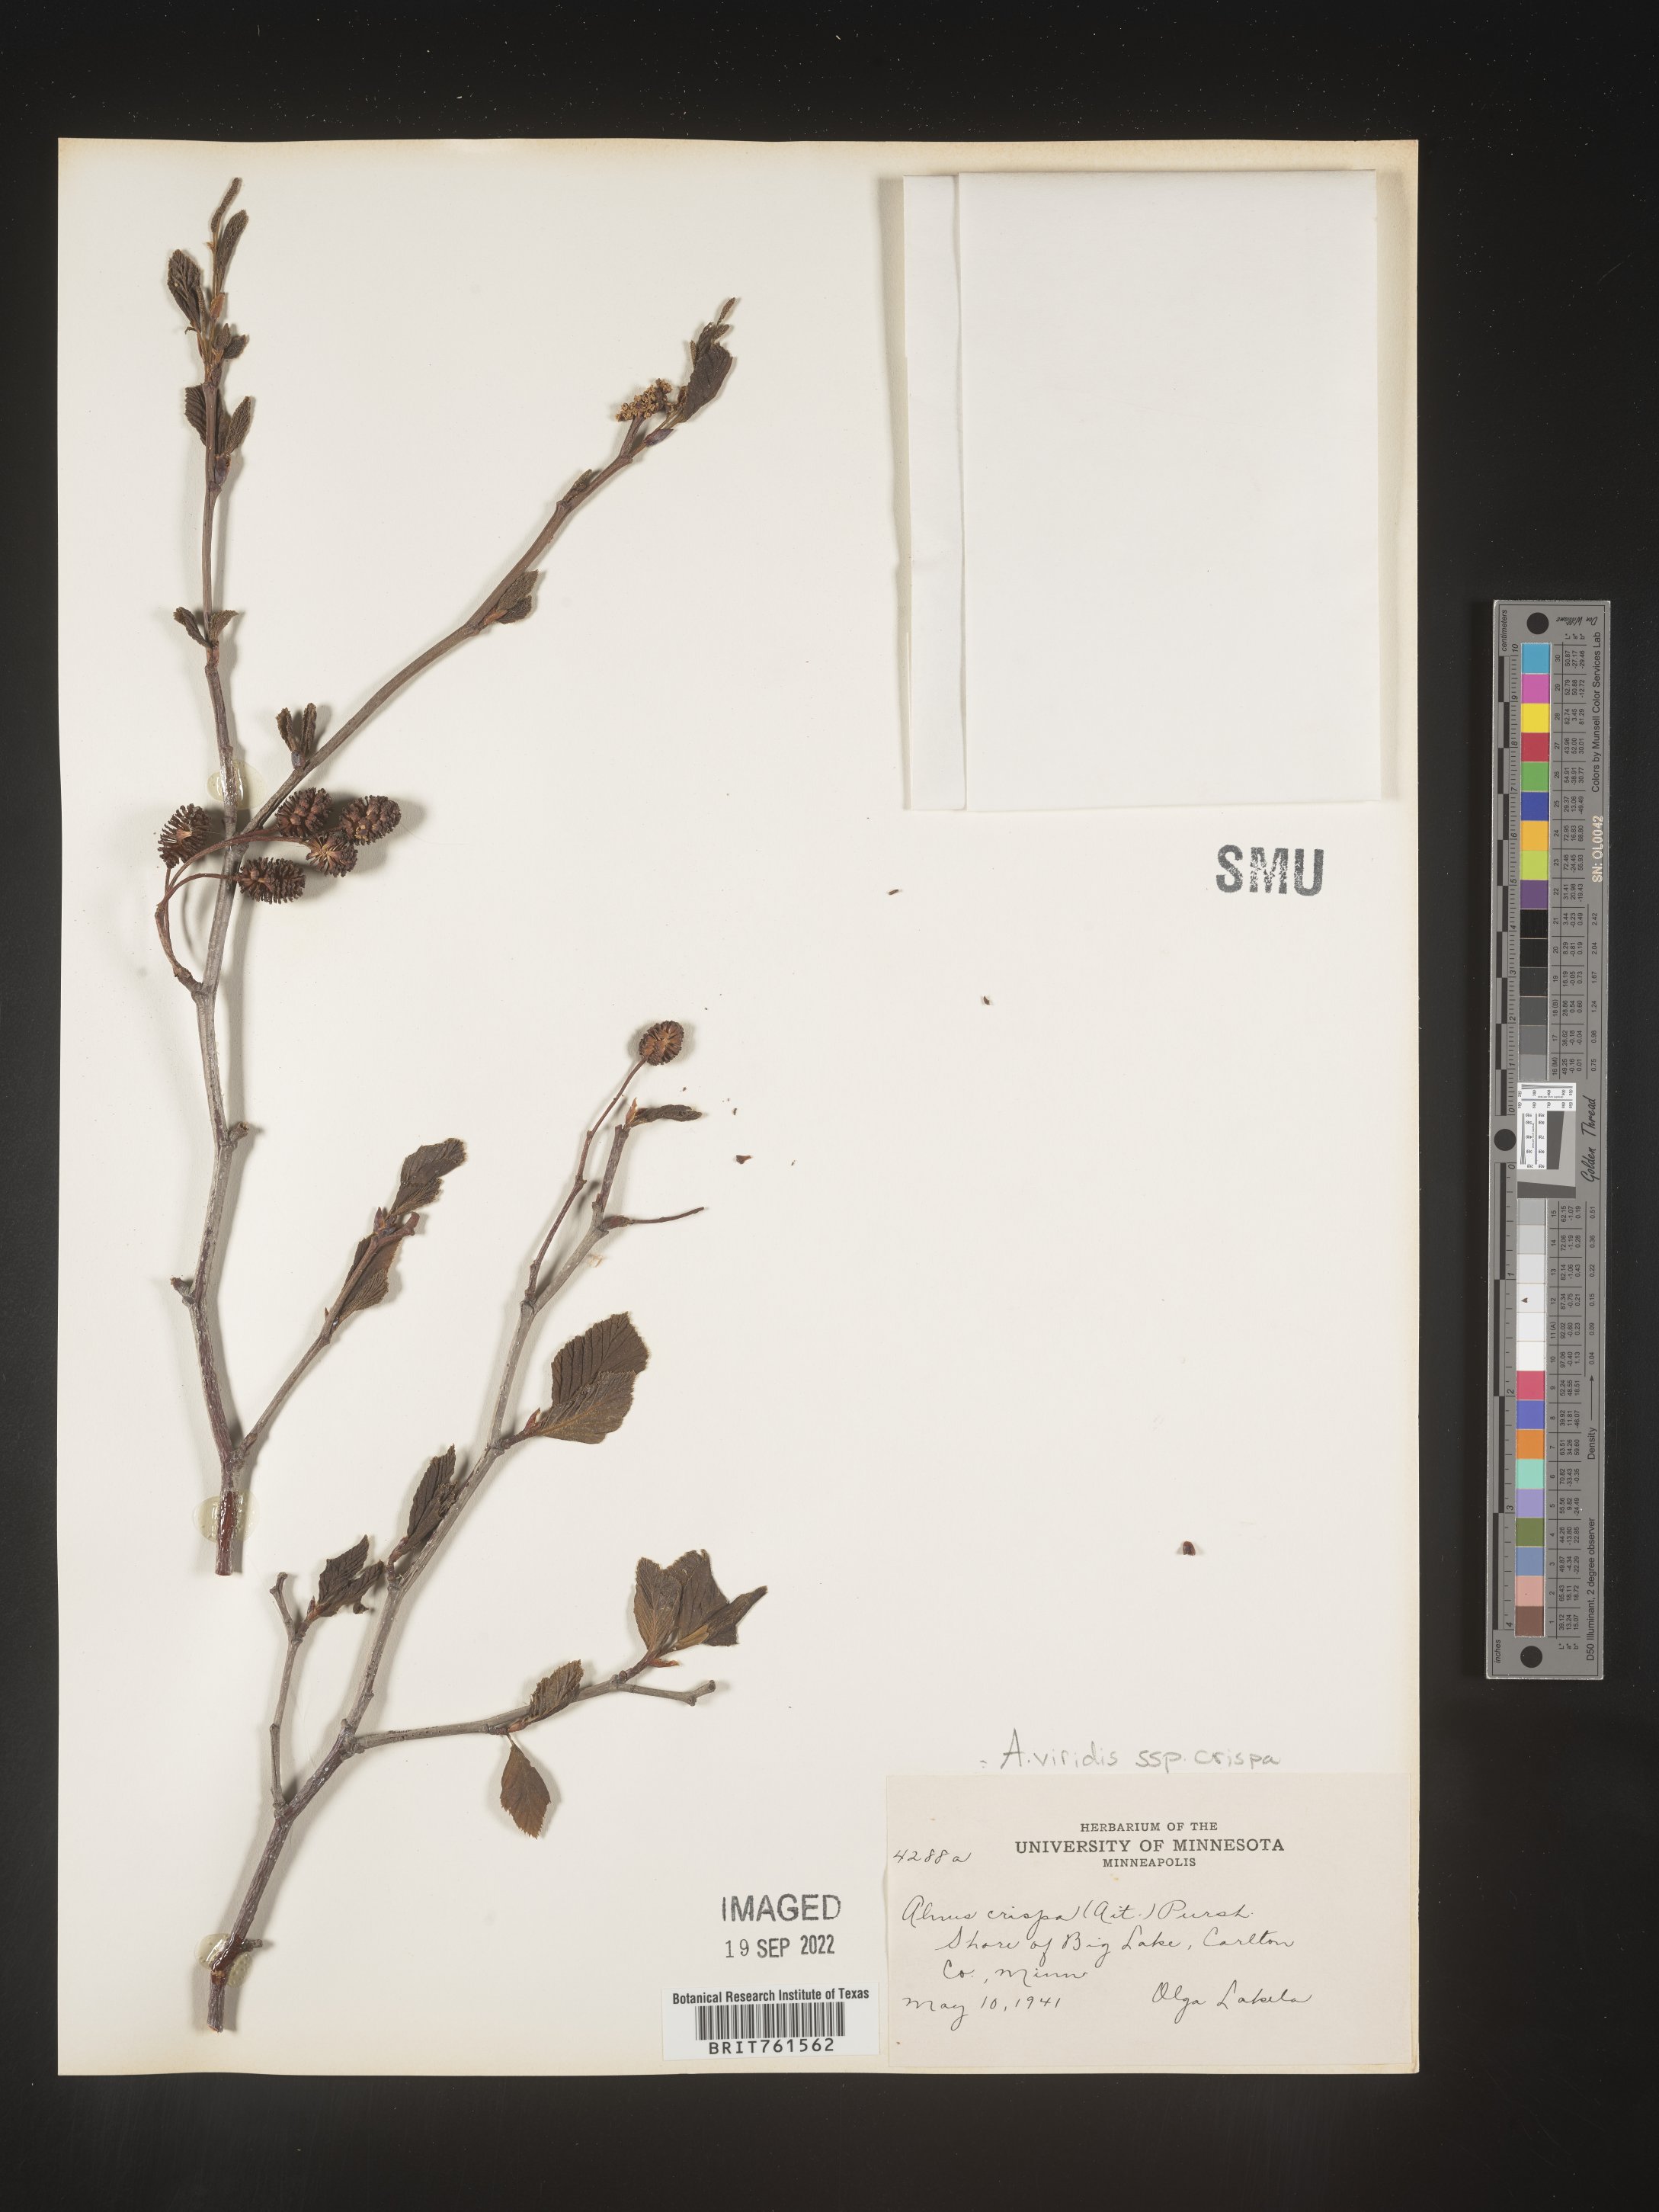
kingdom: Plantae
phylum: Tracheophyta
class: Magnoliopsida
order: Fagales
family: Betulaceae
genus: Alnus
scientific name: Alnus alnobetula
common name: Green alder
